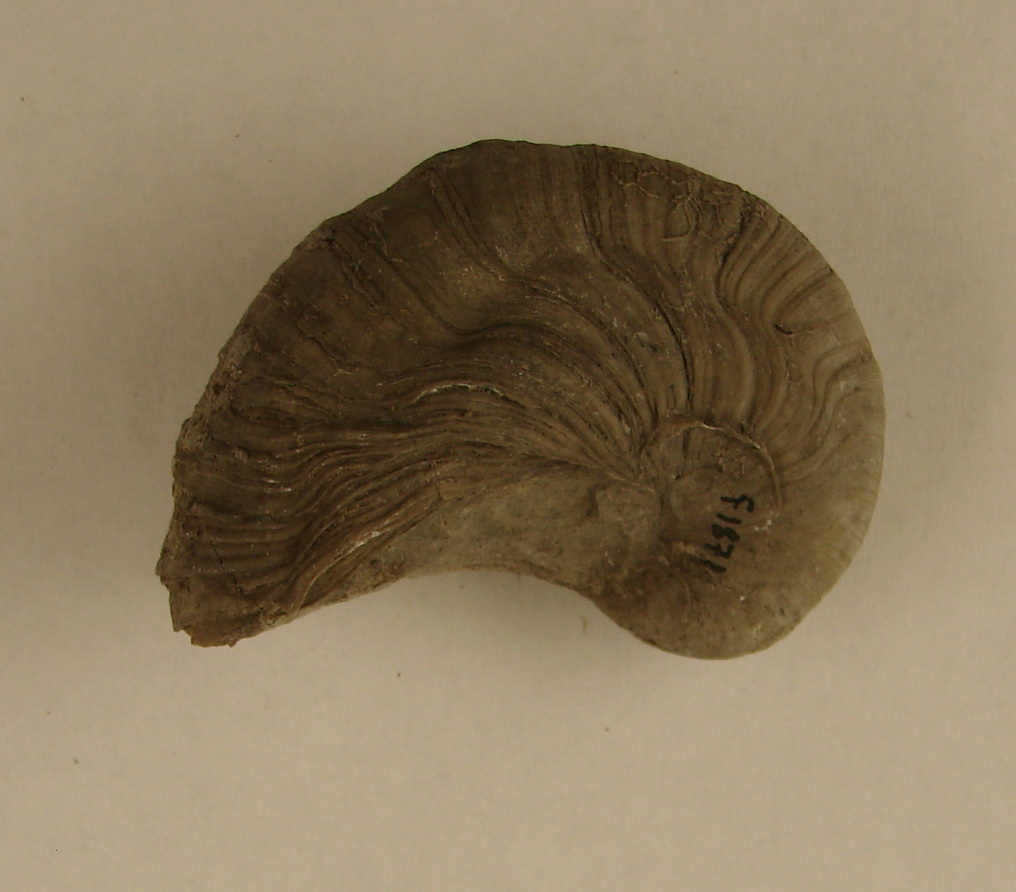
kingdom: Animalia
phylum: Mollusca
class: Bivalvia
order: Ostreida
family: Gryphaeidae
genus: Gryphaea
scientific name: Gryphaea arcuata
